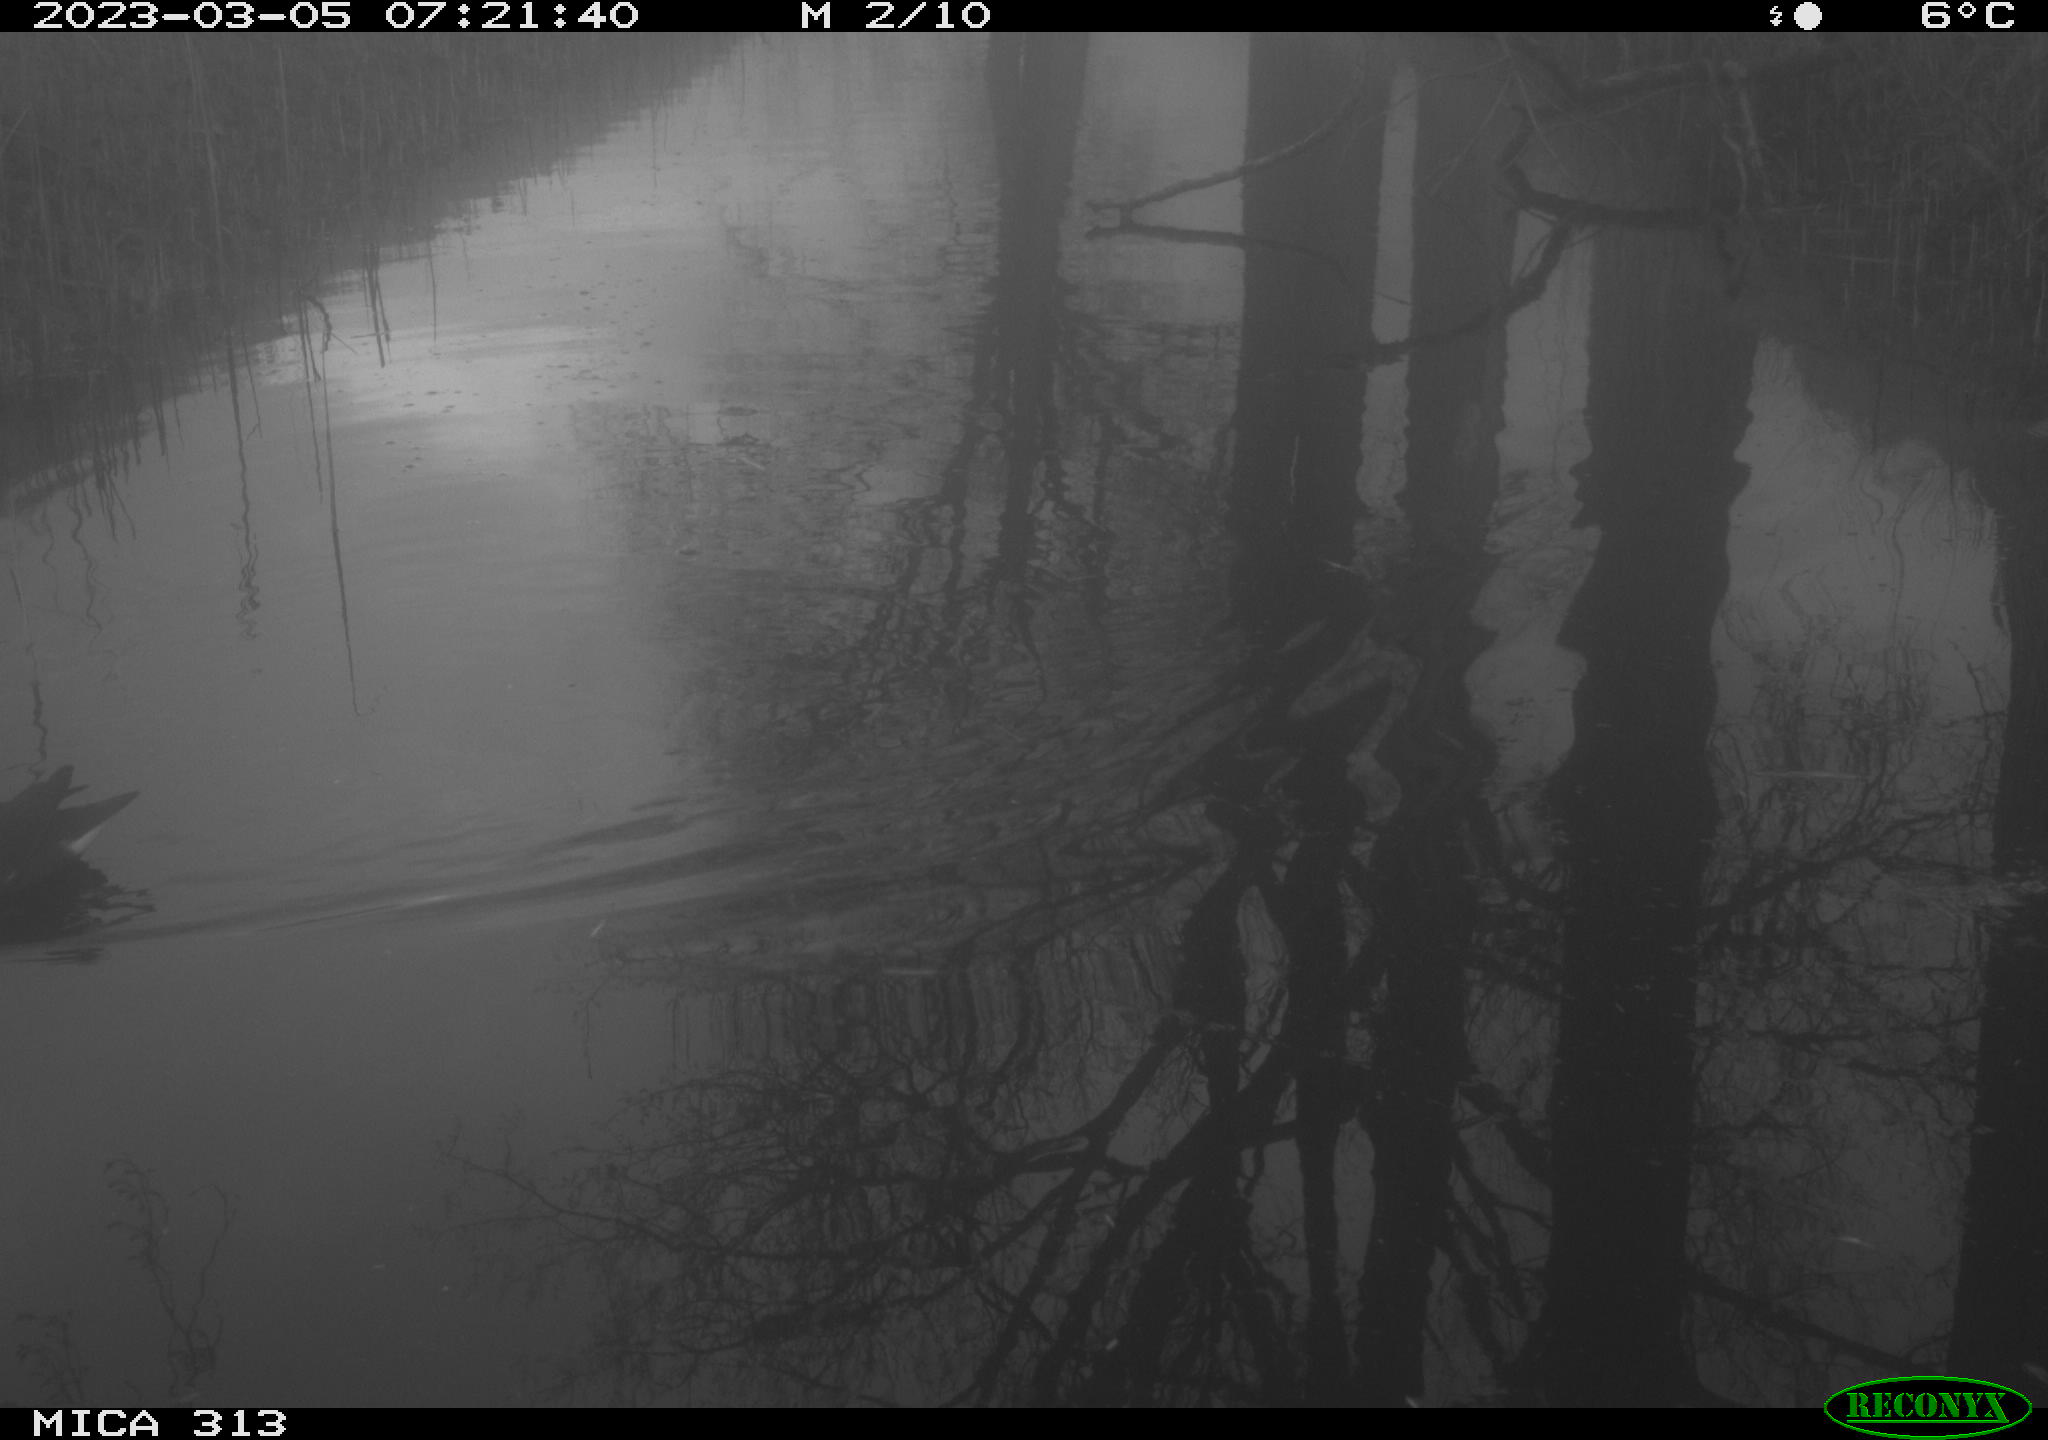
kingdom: Animalia
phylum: Chordata
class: Aves
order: Gruiformes
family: Rallidae
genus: Gallinula
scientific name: Gallinula chloropus
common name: Common moorhen
